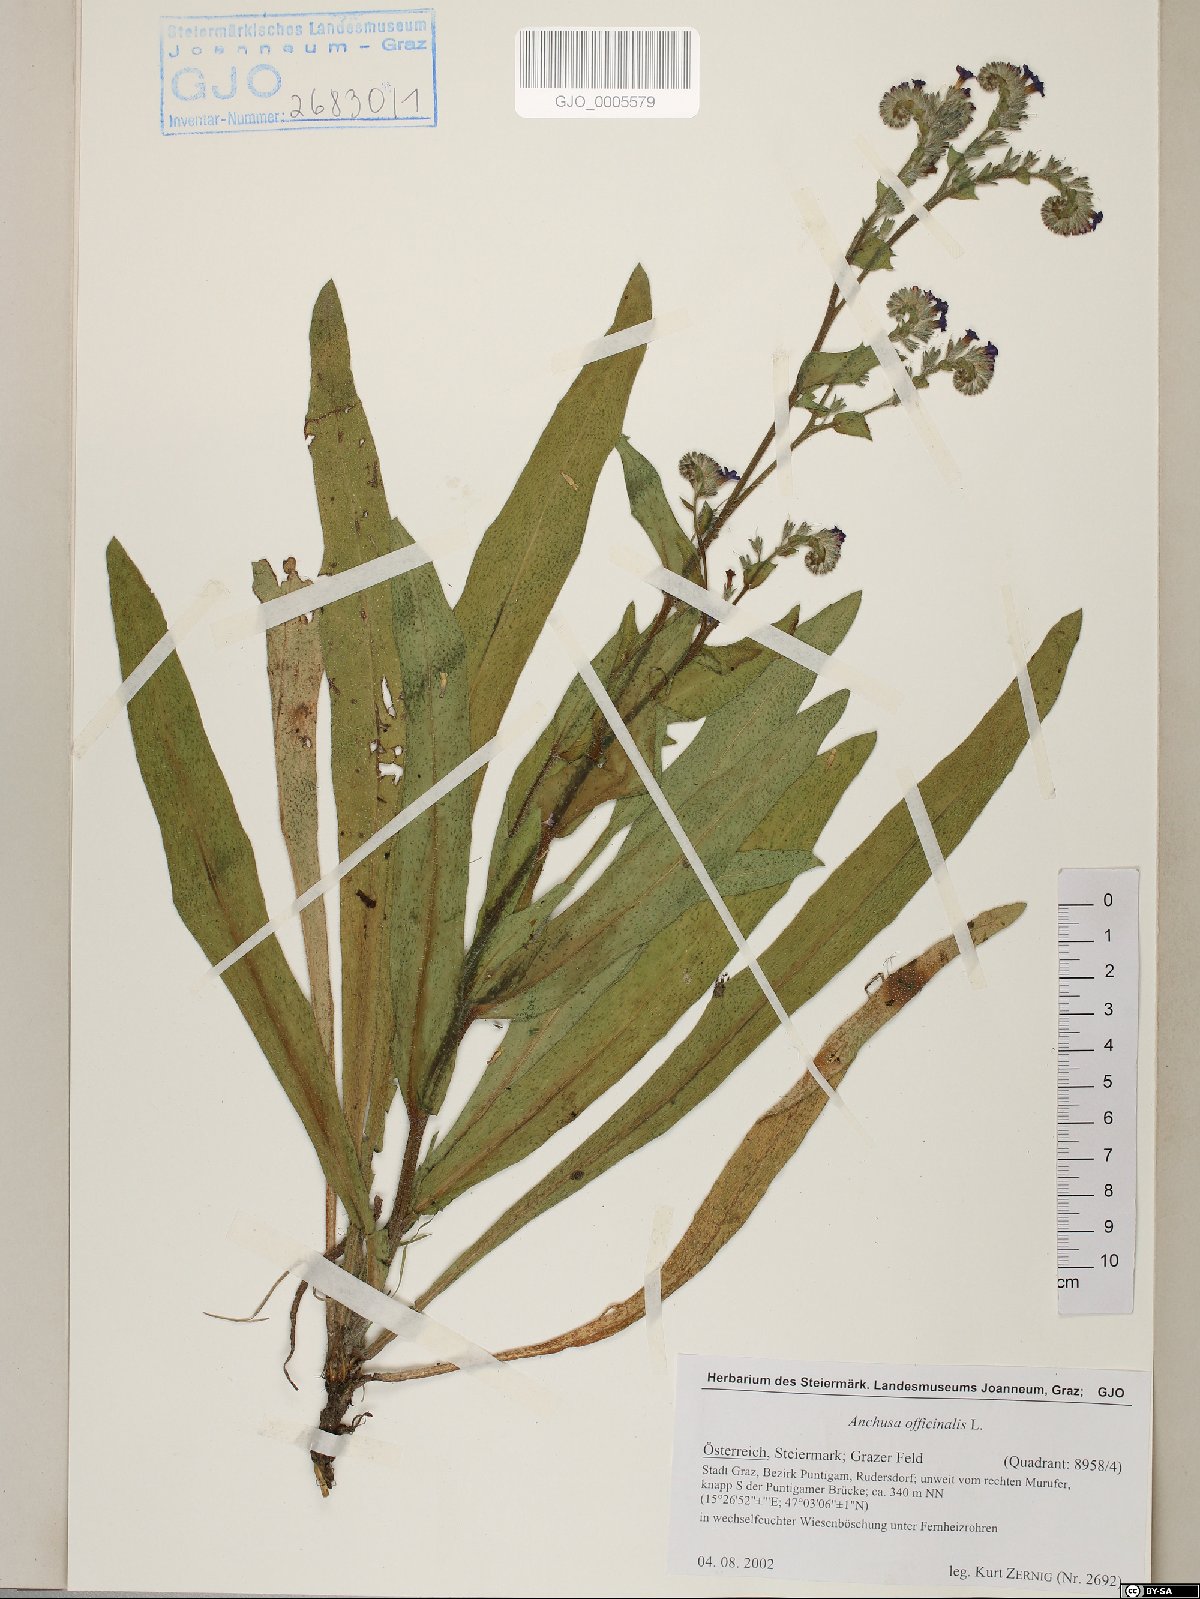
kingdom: Plantae
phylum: Tracheophyta
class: Magnoliopsida
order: Boraginales
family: Boraginaceae
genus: Anchusa
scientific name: Anchusa officinalis
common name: Alkanet
